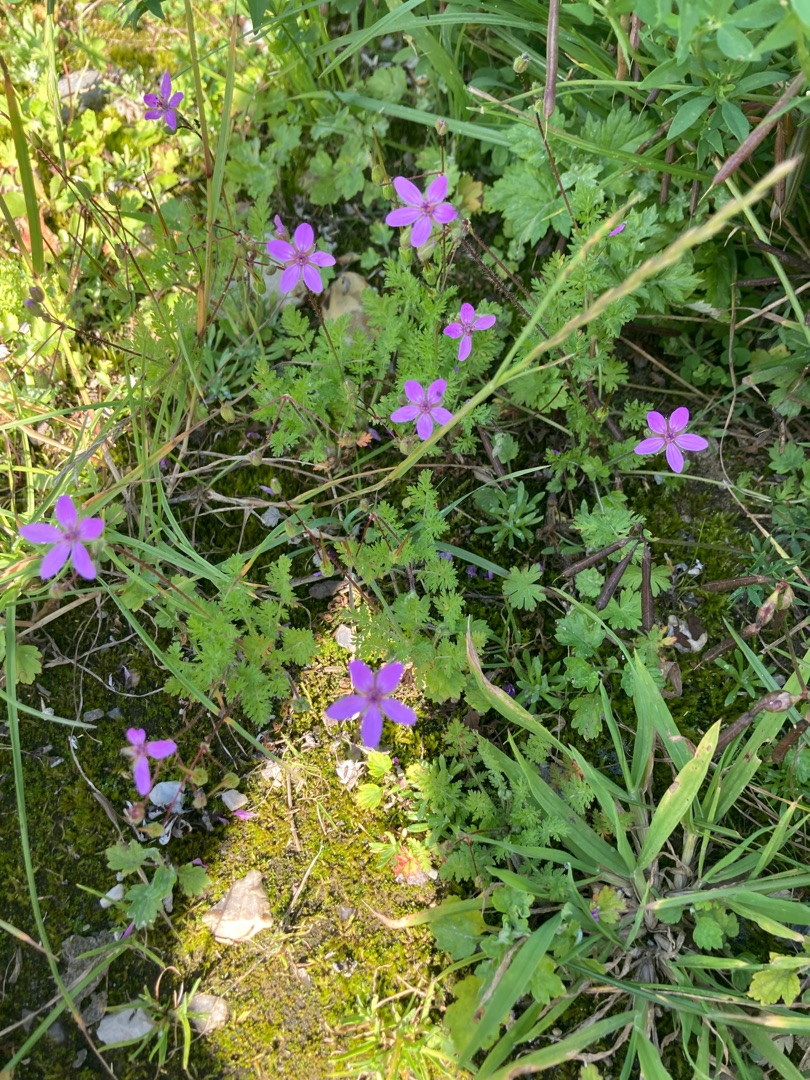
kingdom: Plantae
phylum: Tracheophyta
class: Magnoliopsida
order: Geraniales
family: Geraniaceae
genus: Erodium
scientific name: Erodium cicutarium
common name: Hejrenæb
